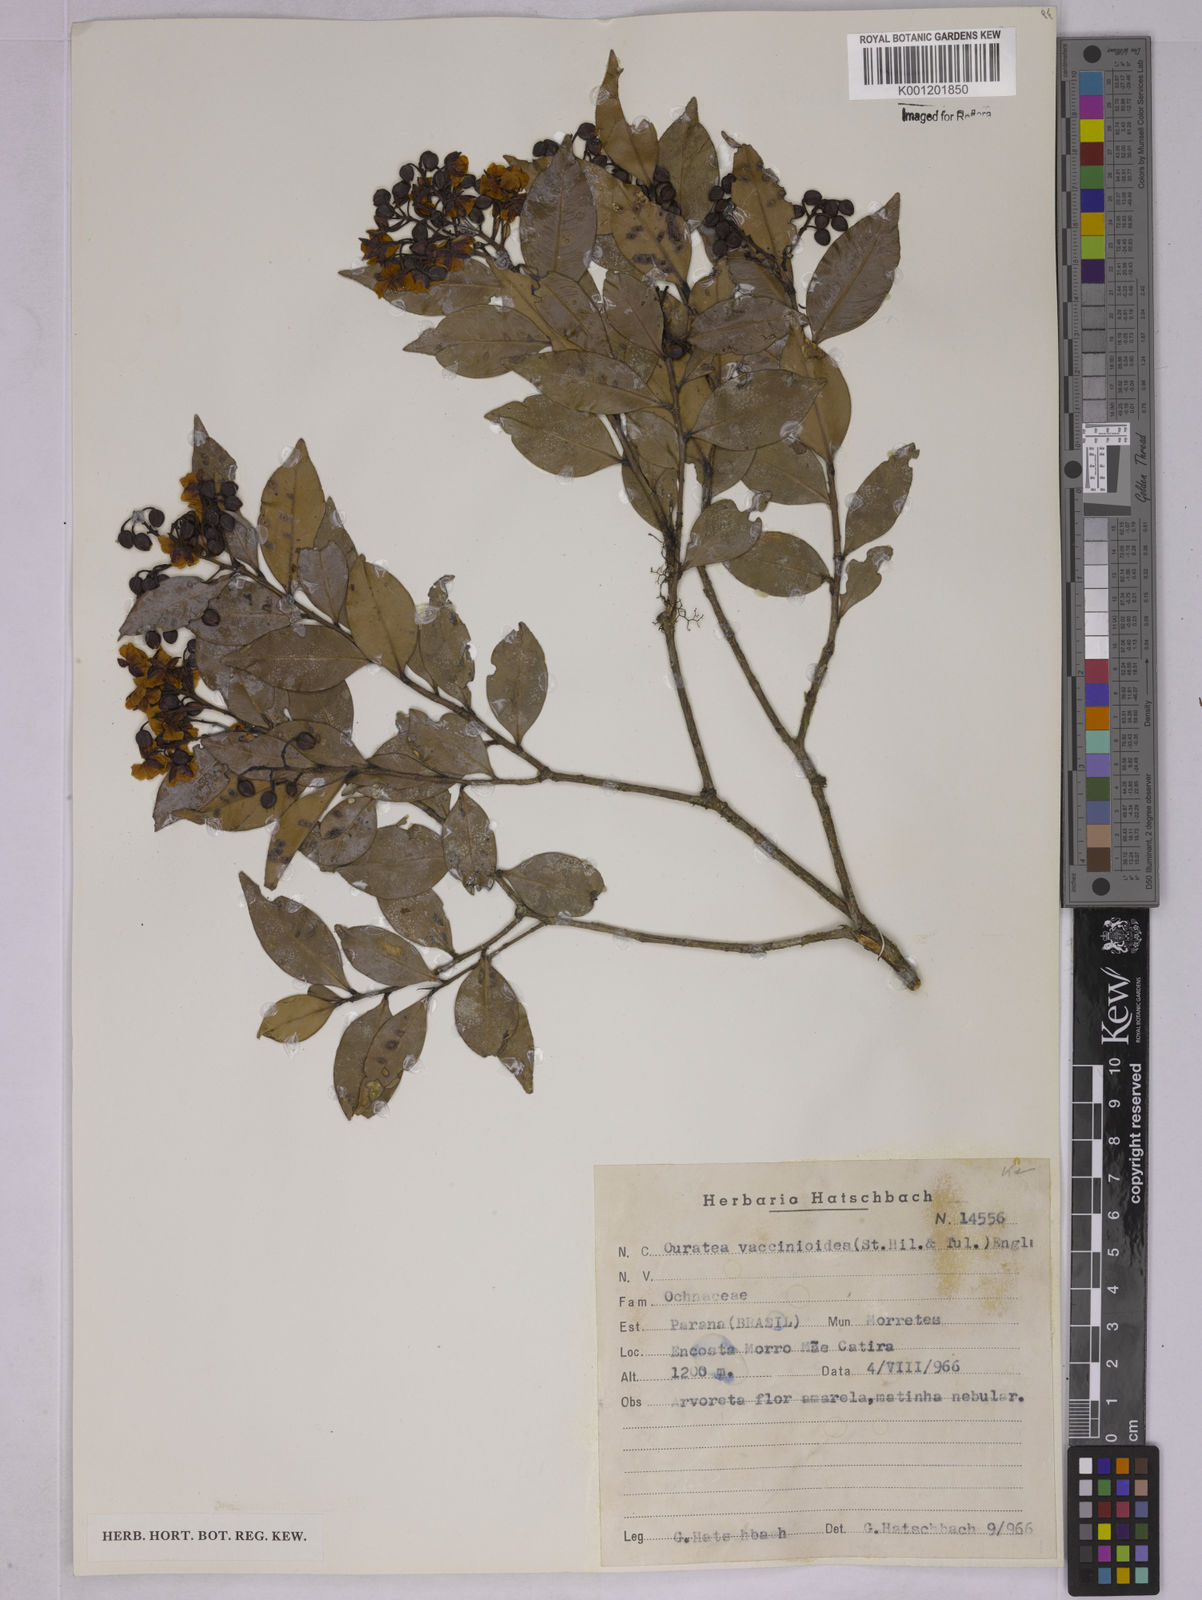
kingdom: Plantae
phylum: Tracheophyta
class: Magnoliopsida
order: Malpighiales
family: Ochnaceae
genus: Ouratea
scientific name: Ouratea vaccinioides
